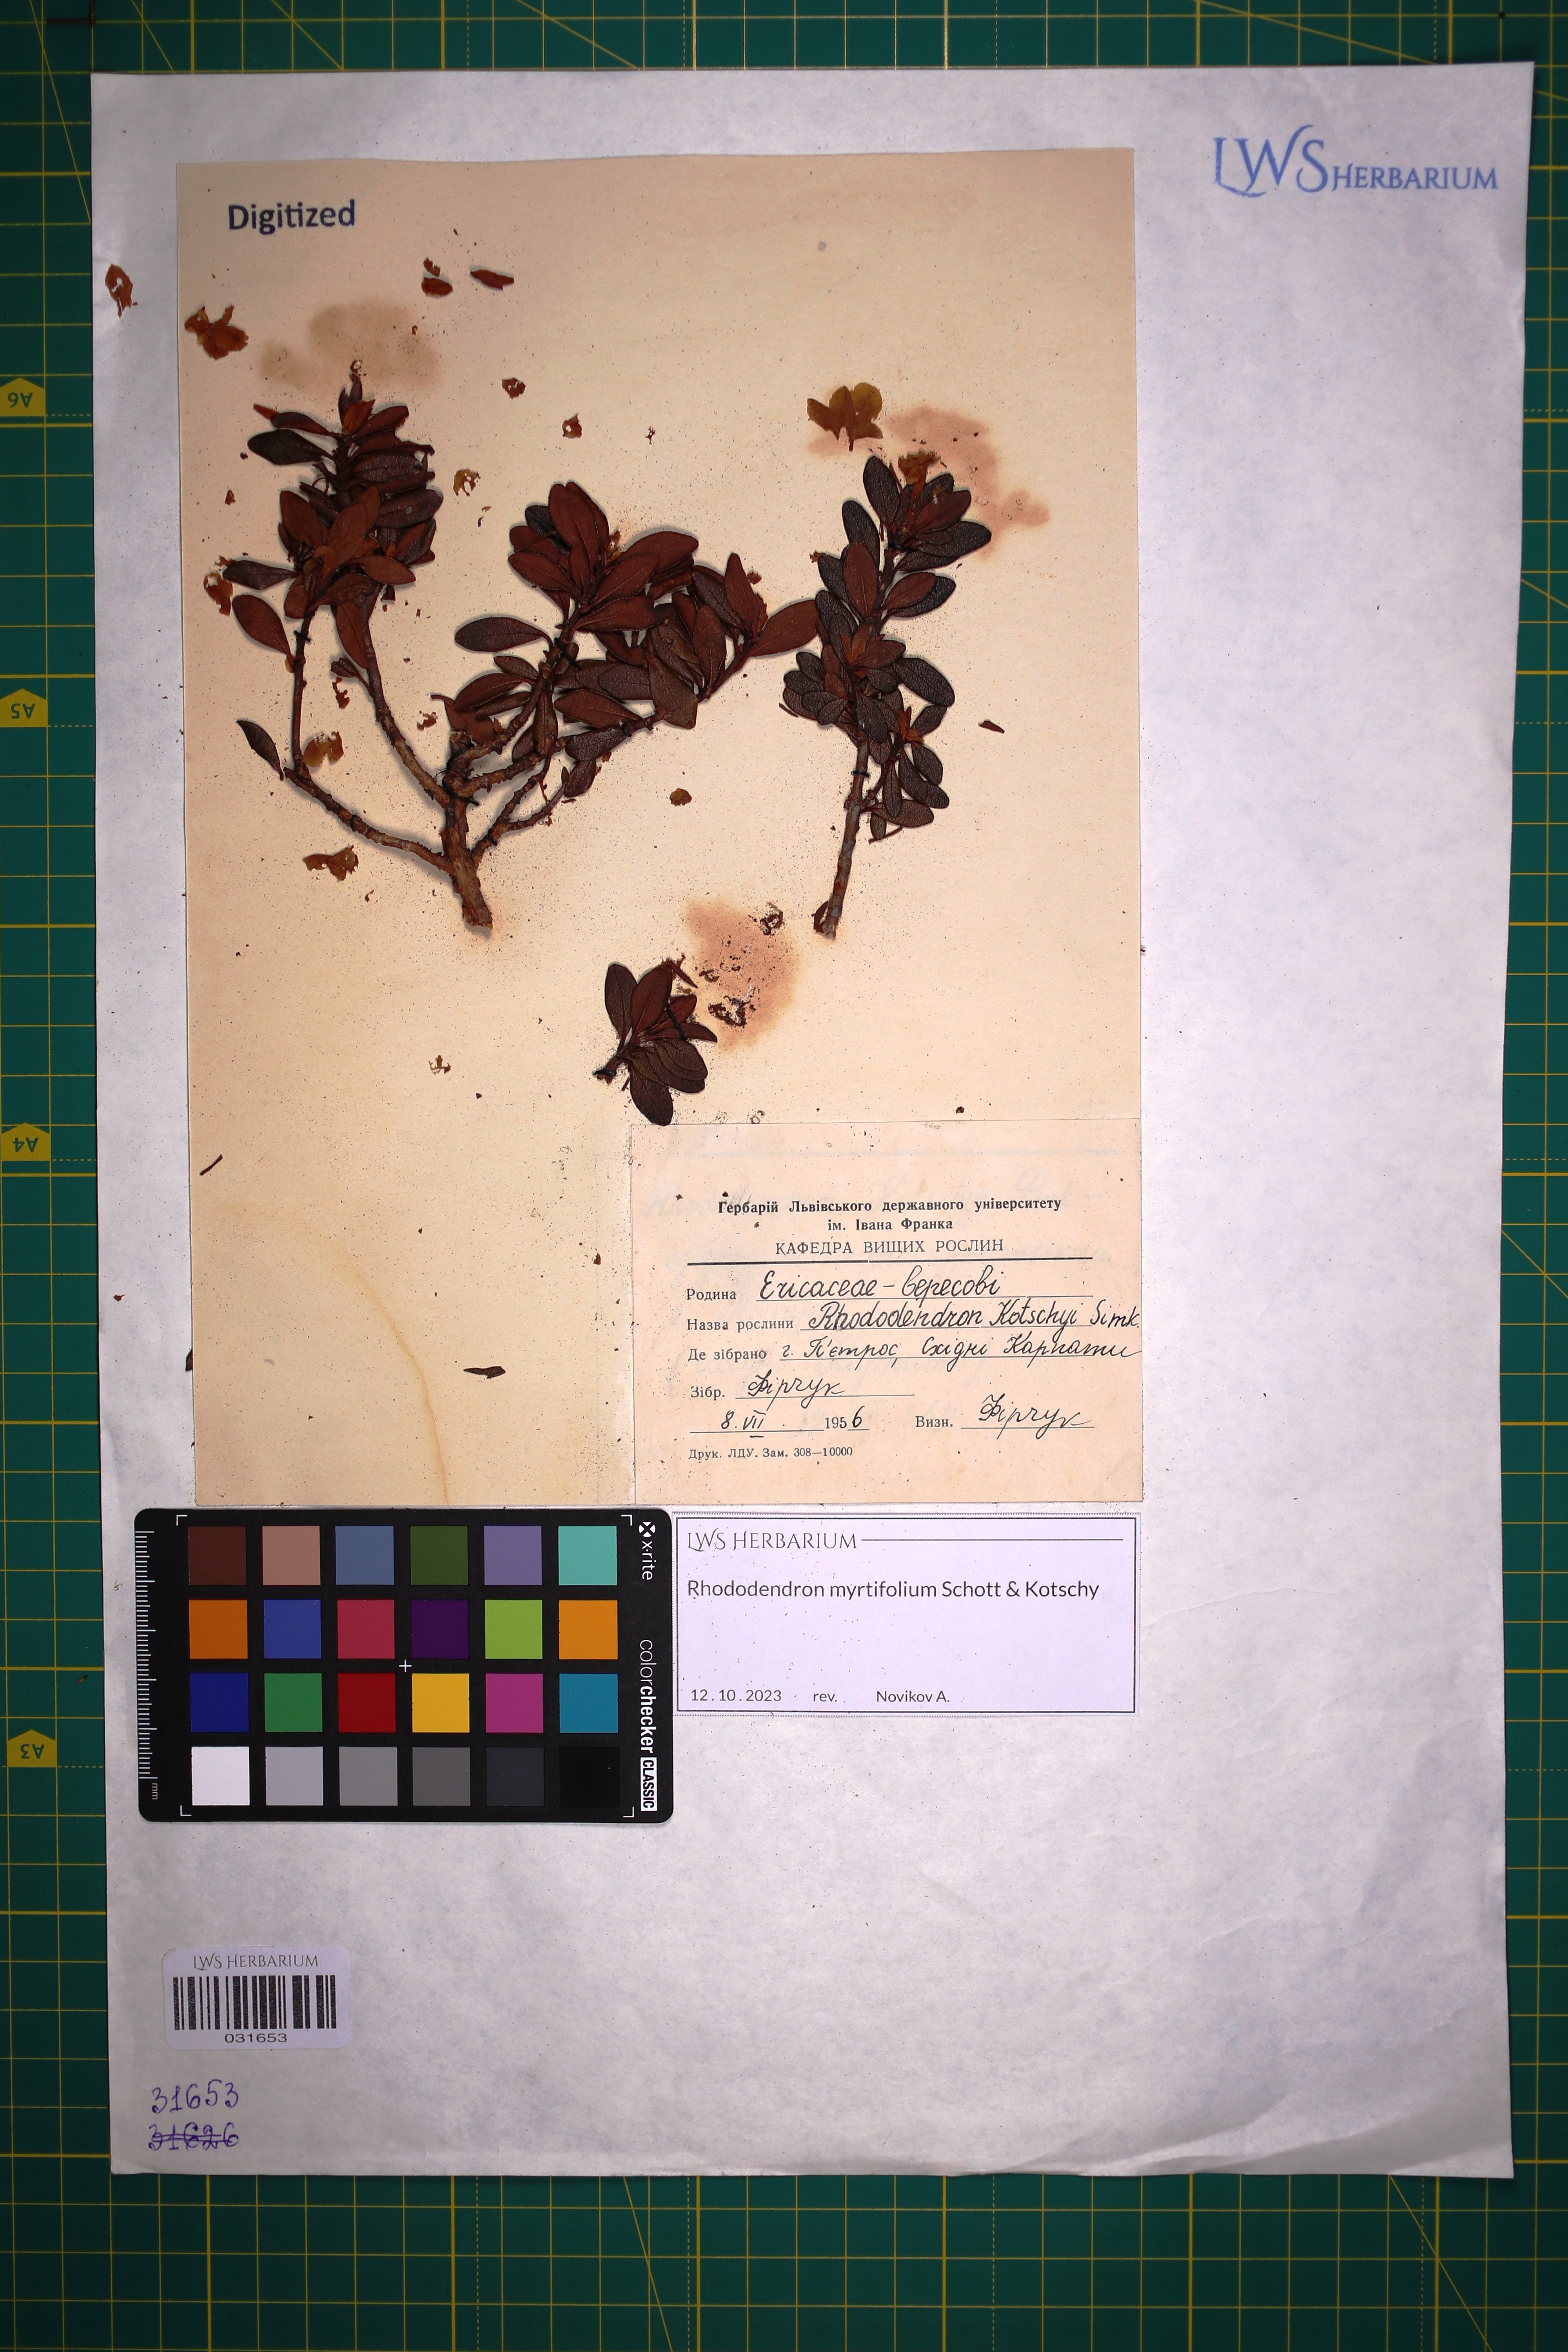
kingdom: Plantae
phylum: Tracheophyta
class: Magnoliopsida
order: Ericales
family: Ericaceae
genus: Rhododendron
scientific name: Rhododendron kotschyi
